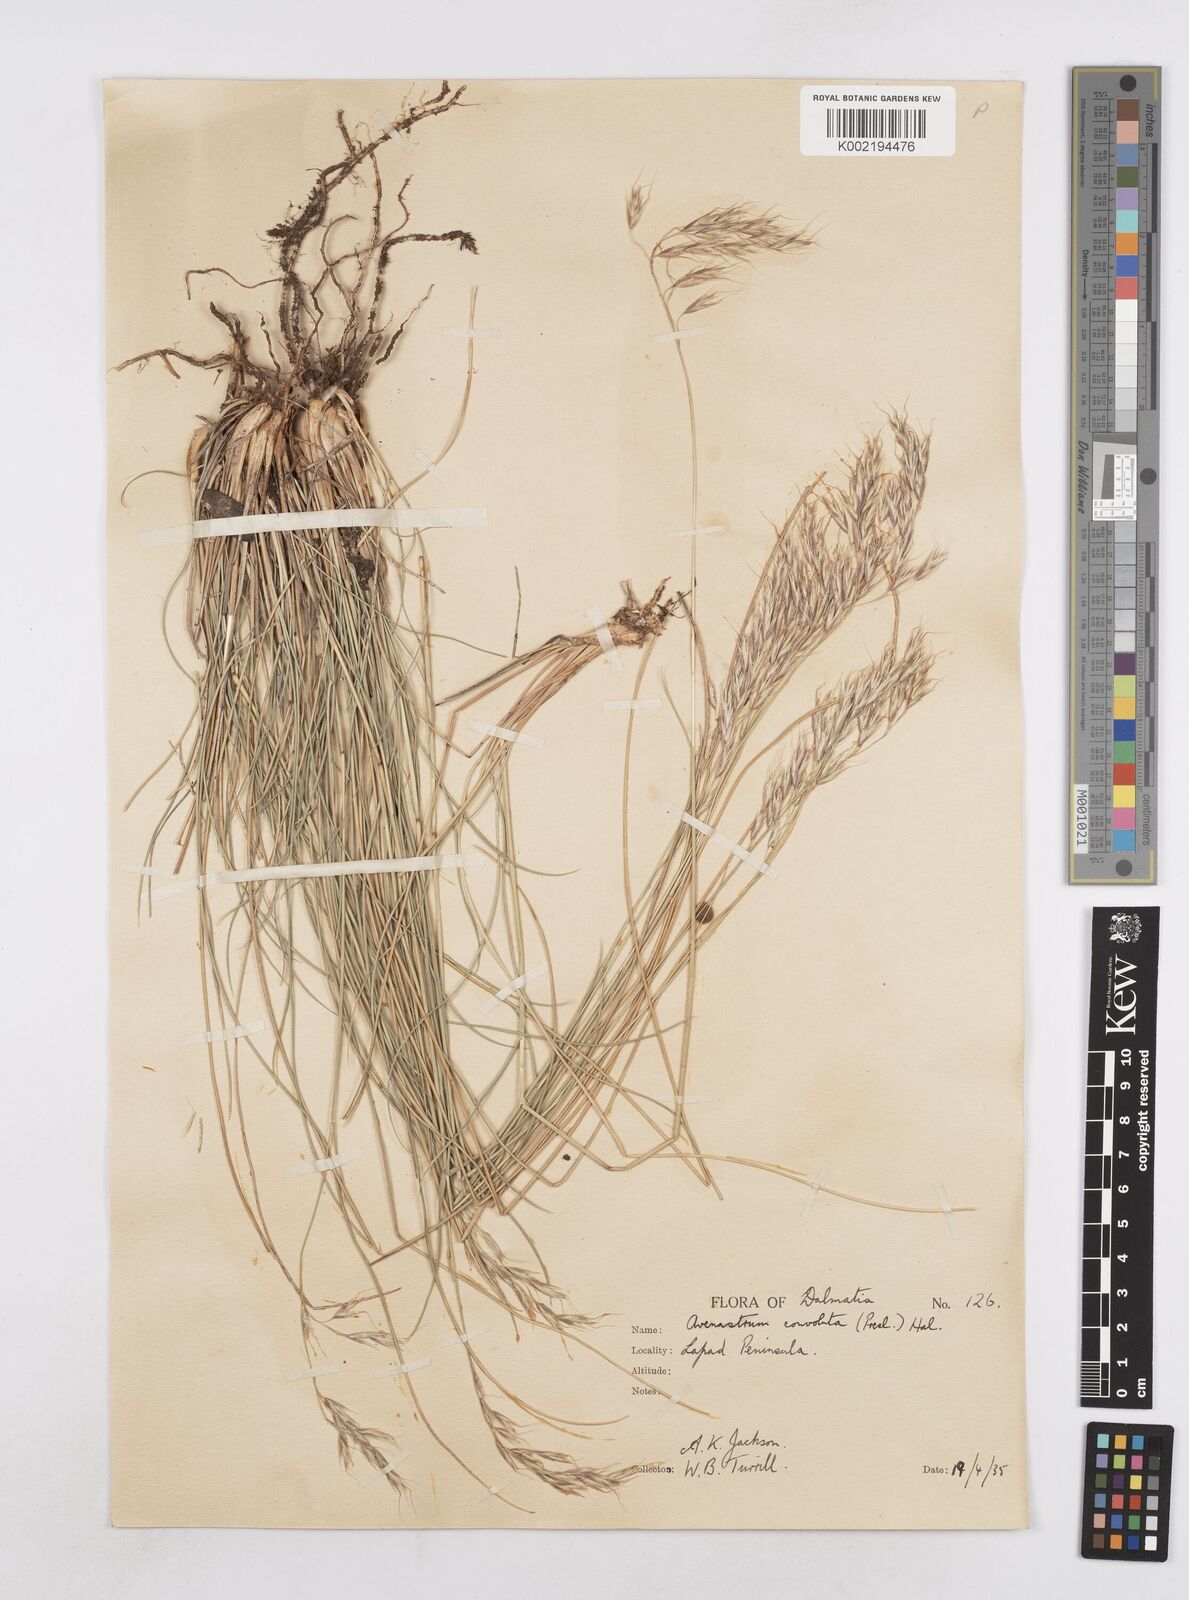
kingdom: Plantae
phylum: Tracheophyta
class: Liliopsida
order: Poales
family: Poaceae
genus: Helictotrichon
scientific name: Helictotrichon convolutum
